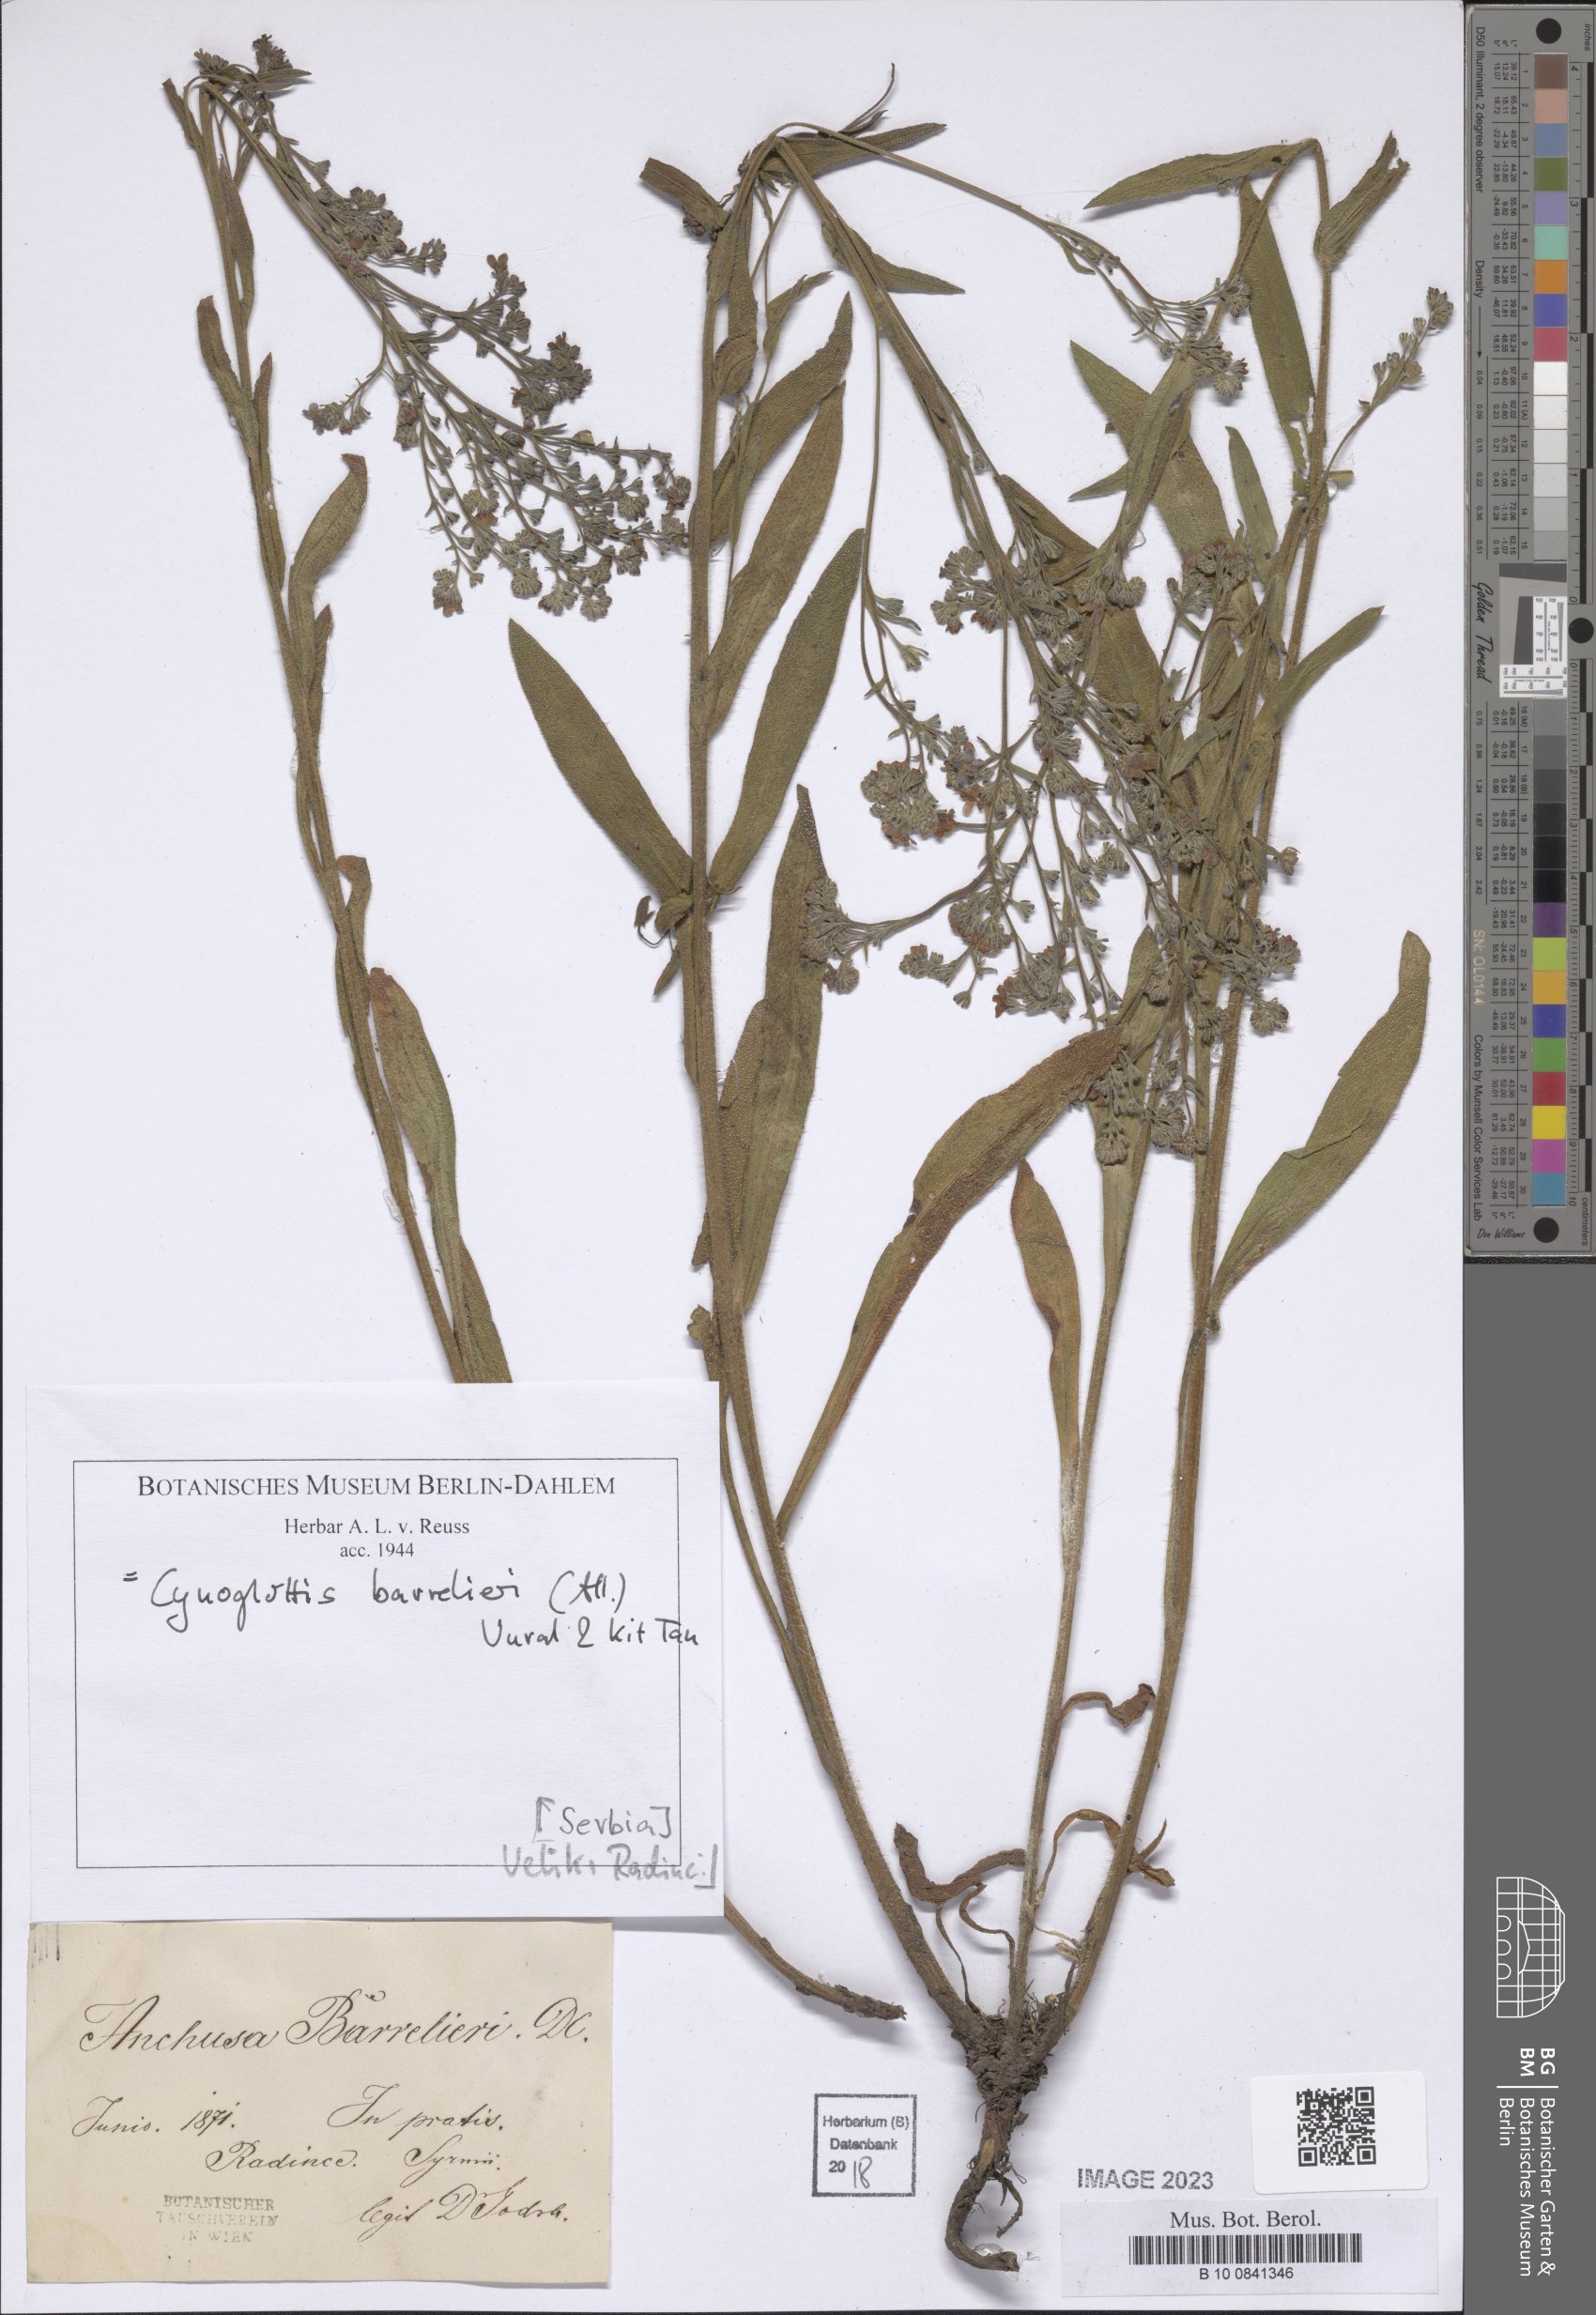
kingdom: Plantae
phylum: Tracheophyta
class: Magnoliopsida
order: Boraginales
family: Boraginaceae
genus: Cynoglottis
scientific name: Cynoglottis barrelieri
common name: False alkanet
